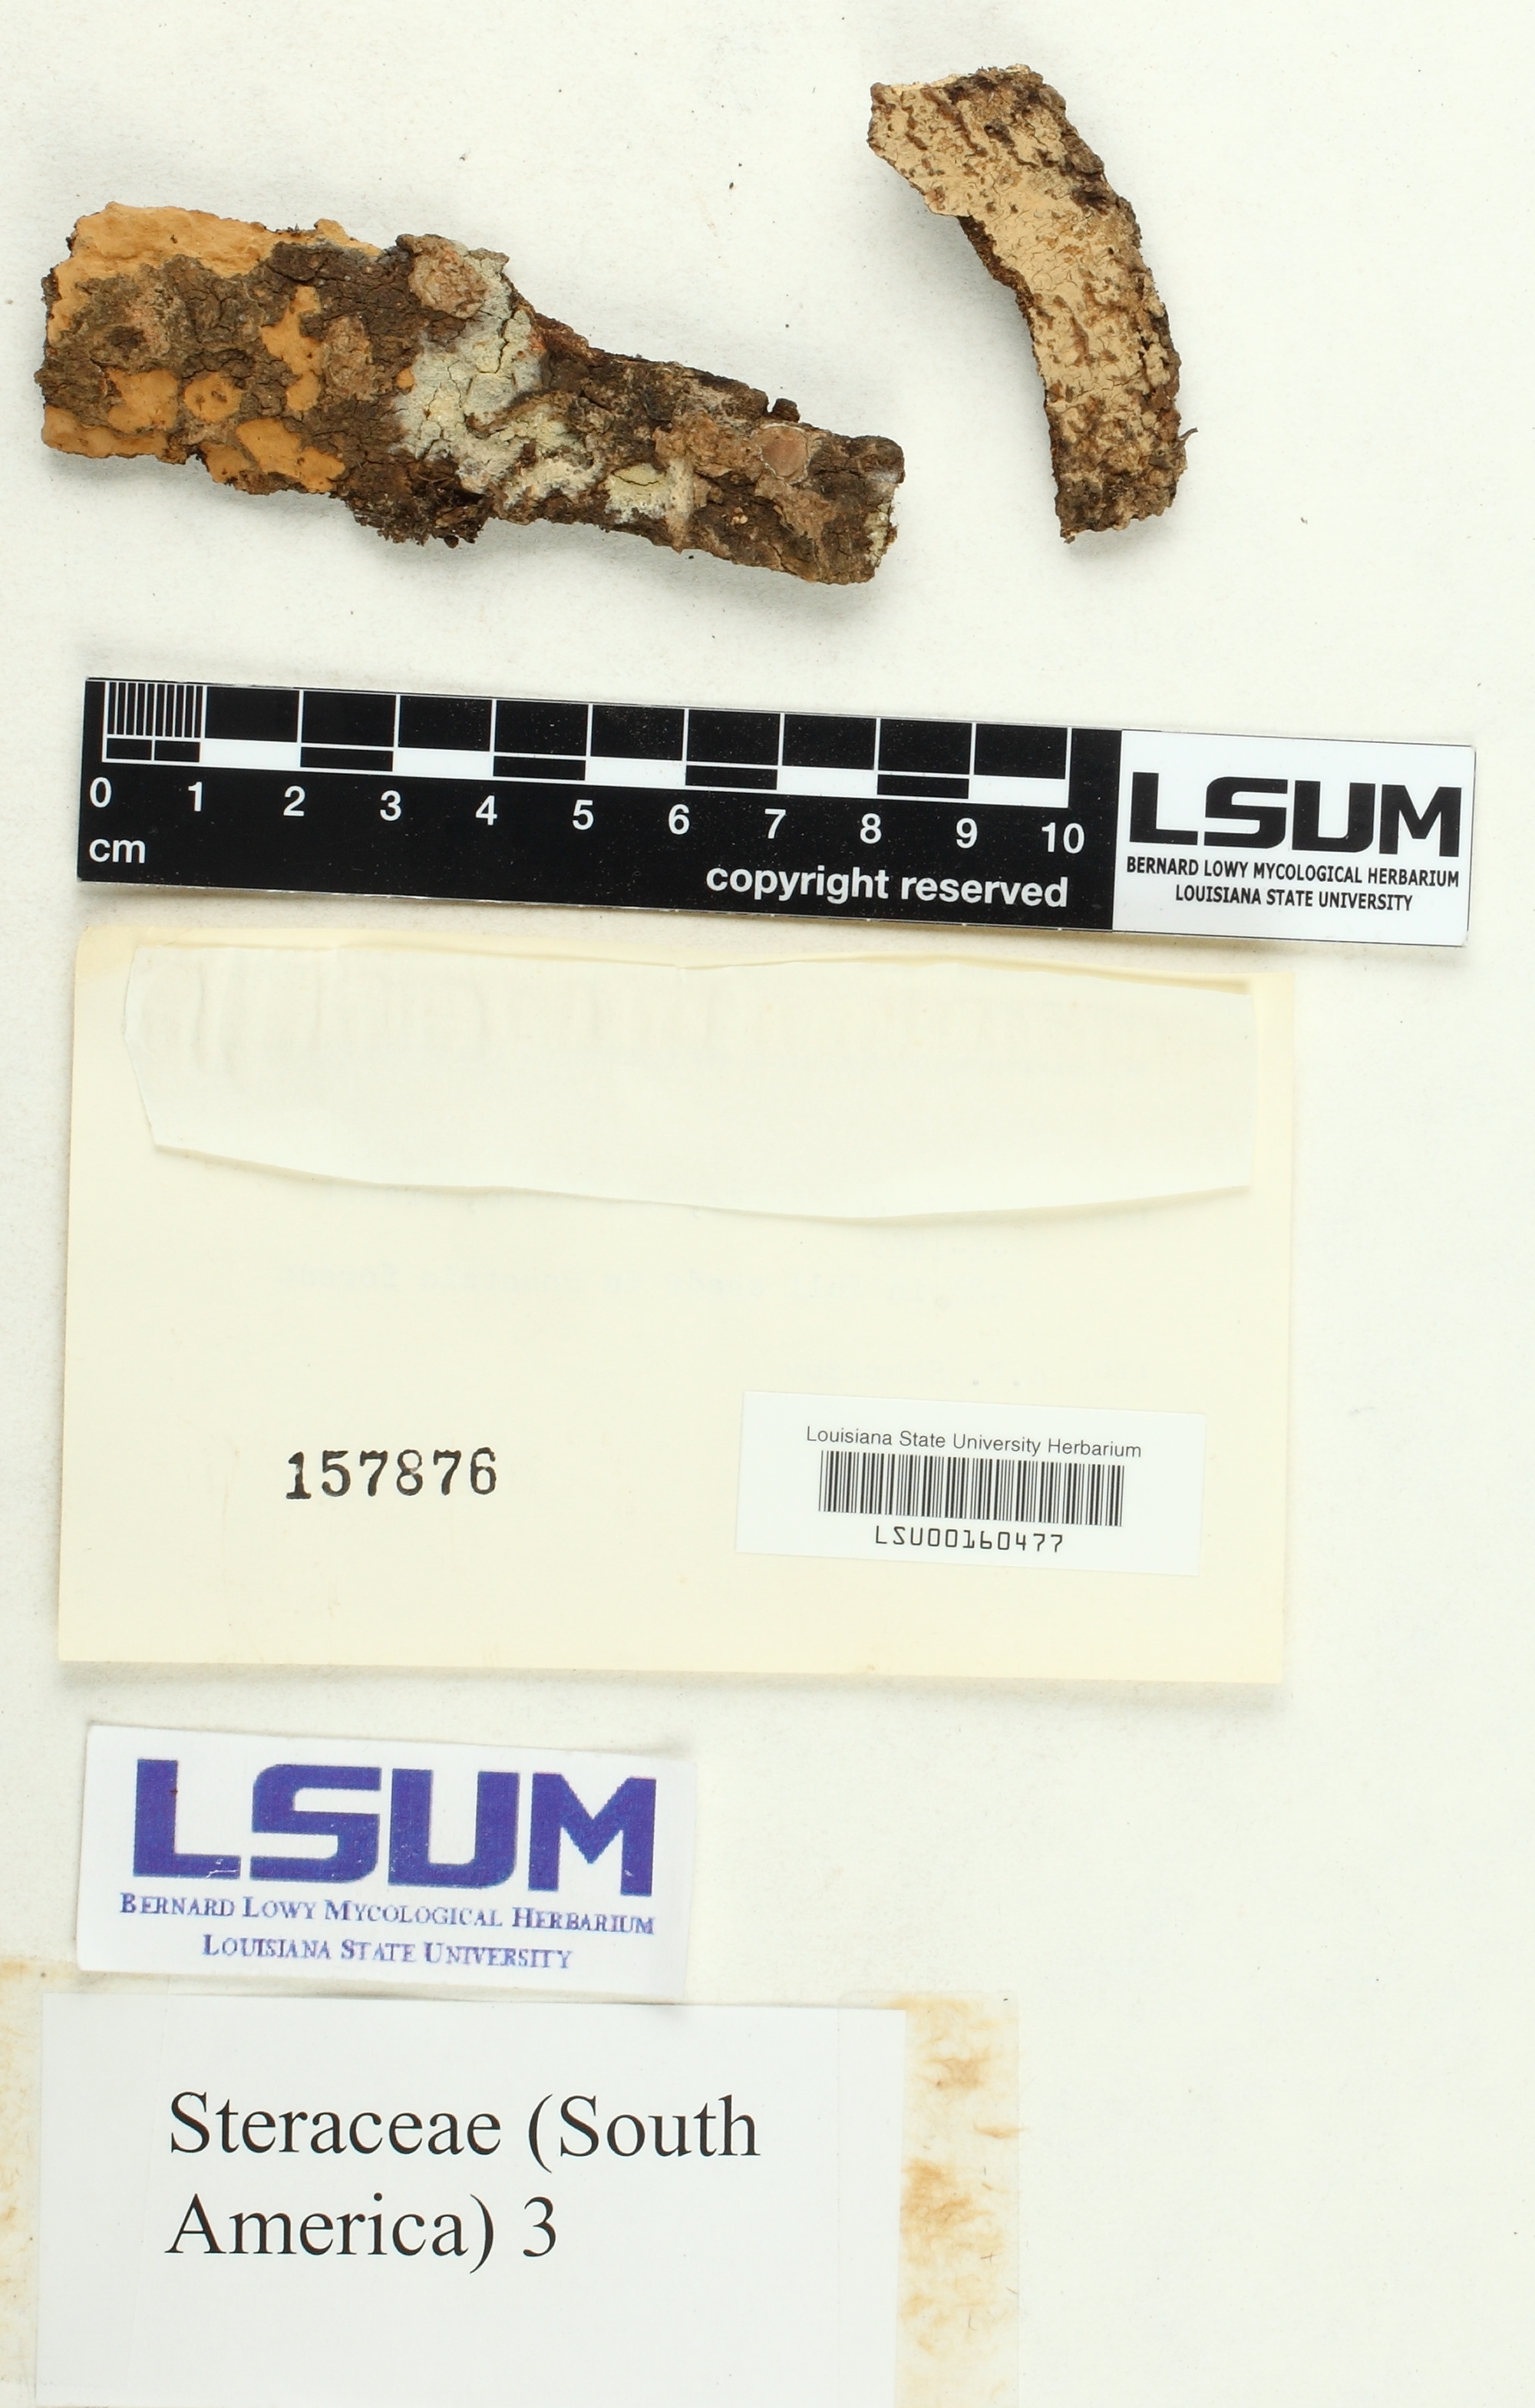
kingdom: Fungi
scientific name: Fungi
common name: Fungi
